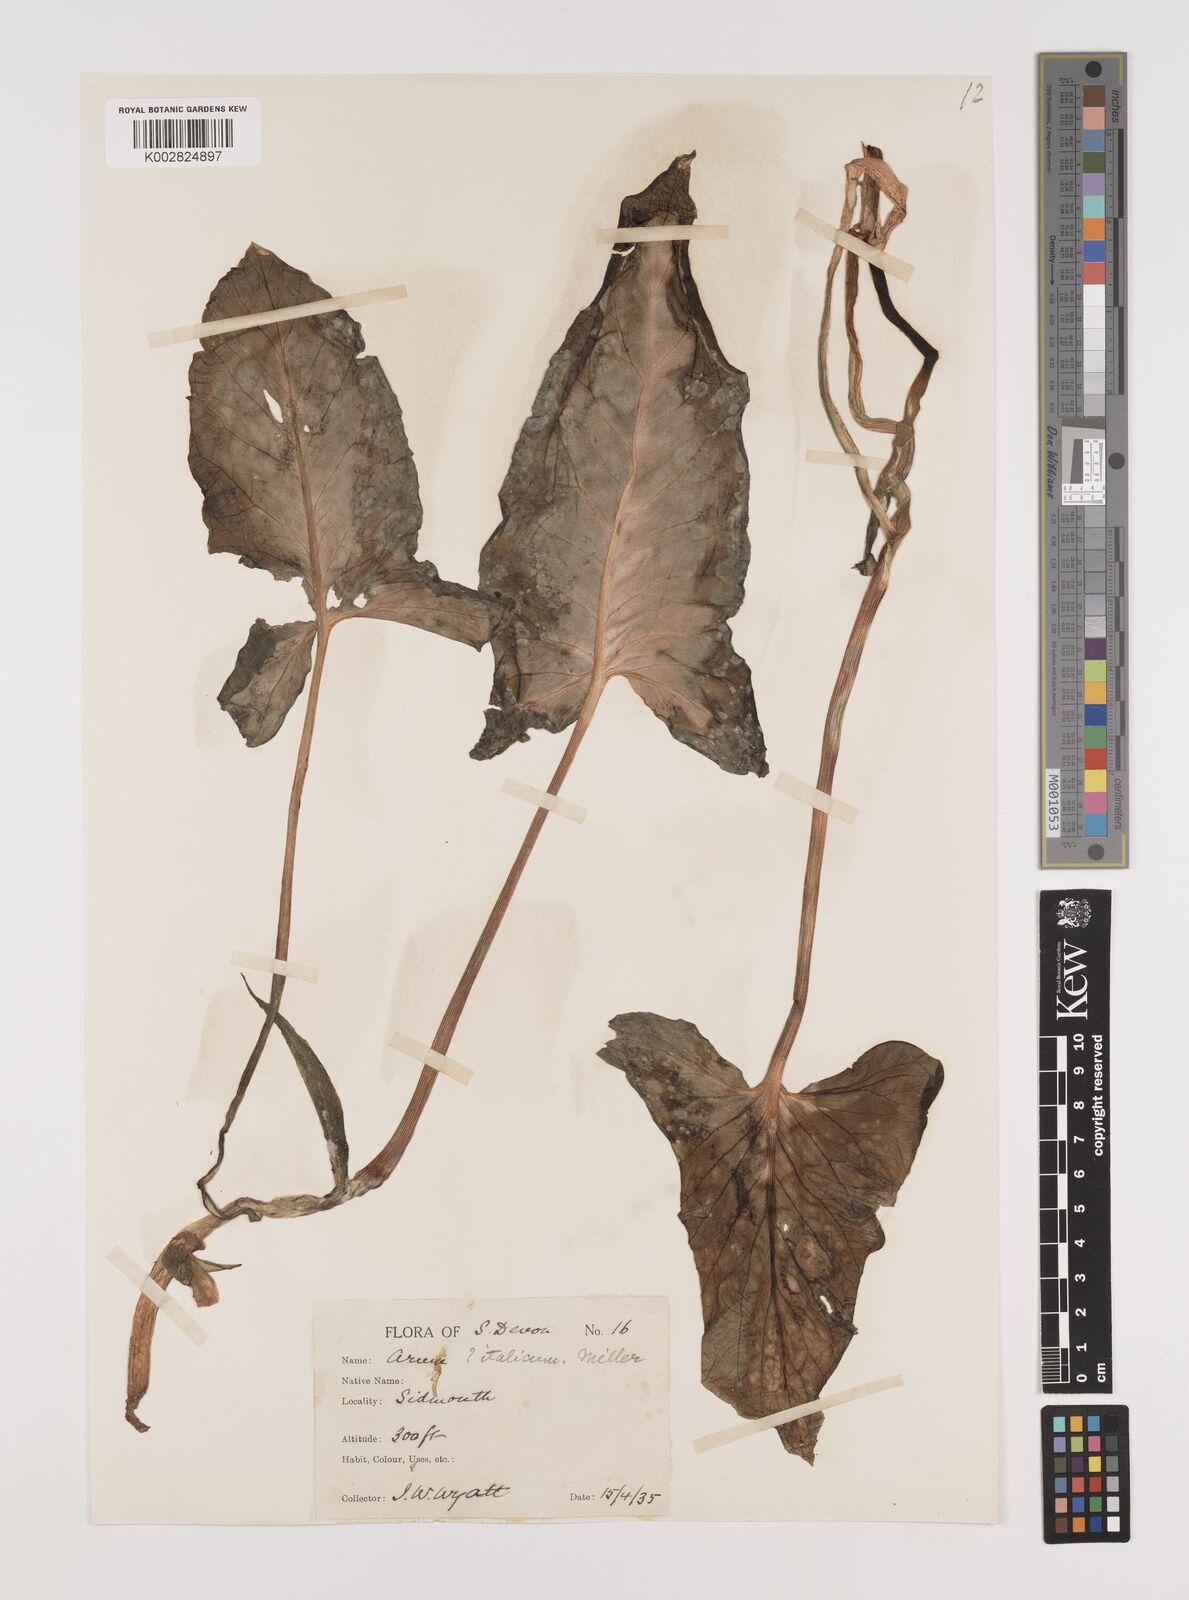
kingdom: Plantae
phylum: Tracheophyta
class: Liliopsida
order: Alismatales
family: Araceae
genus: Arum
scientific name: Arum italicum
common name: Italian lords-and-ladies
